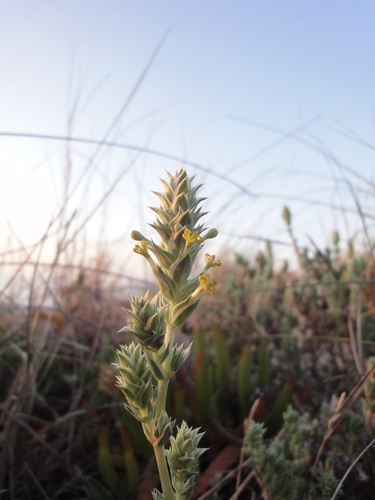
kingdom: Plantae
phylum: Tracheophyta
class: Magnoliopsida
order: Gentianales
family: Rubiaceae
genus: Crucianella
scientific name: Crucianella maritima
